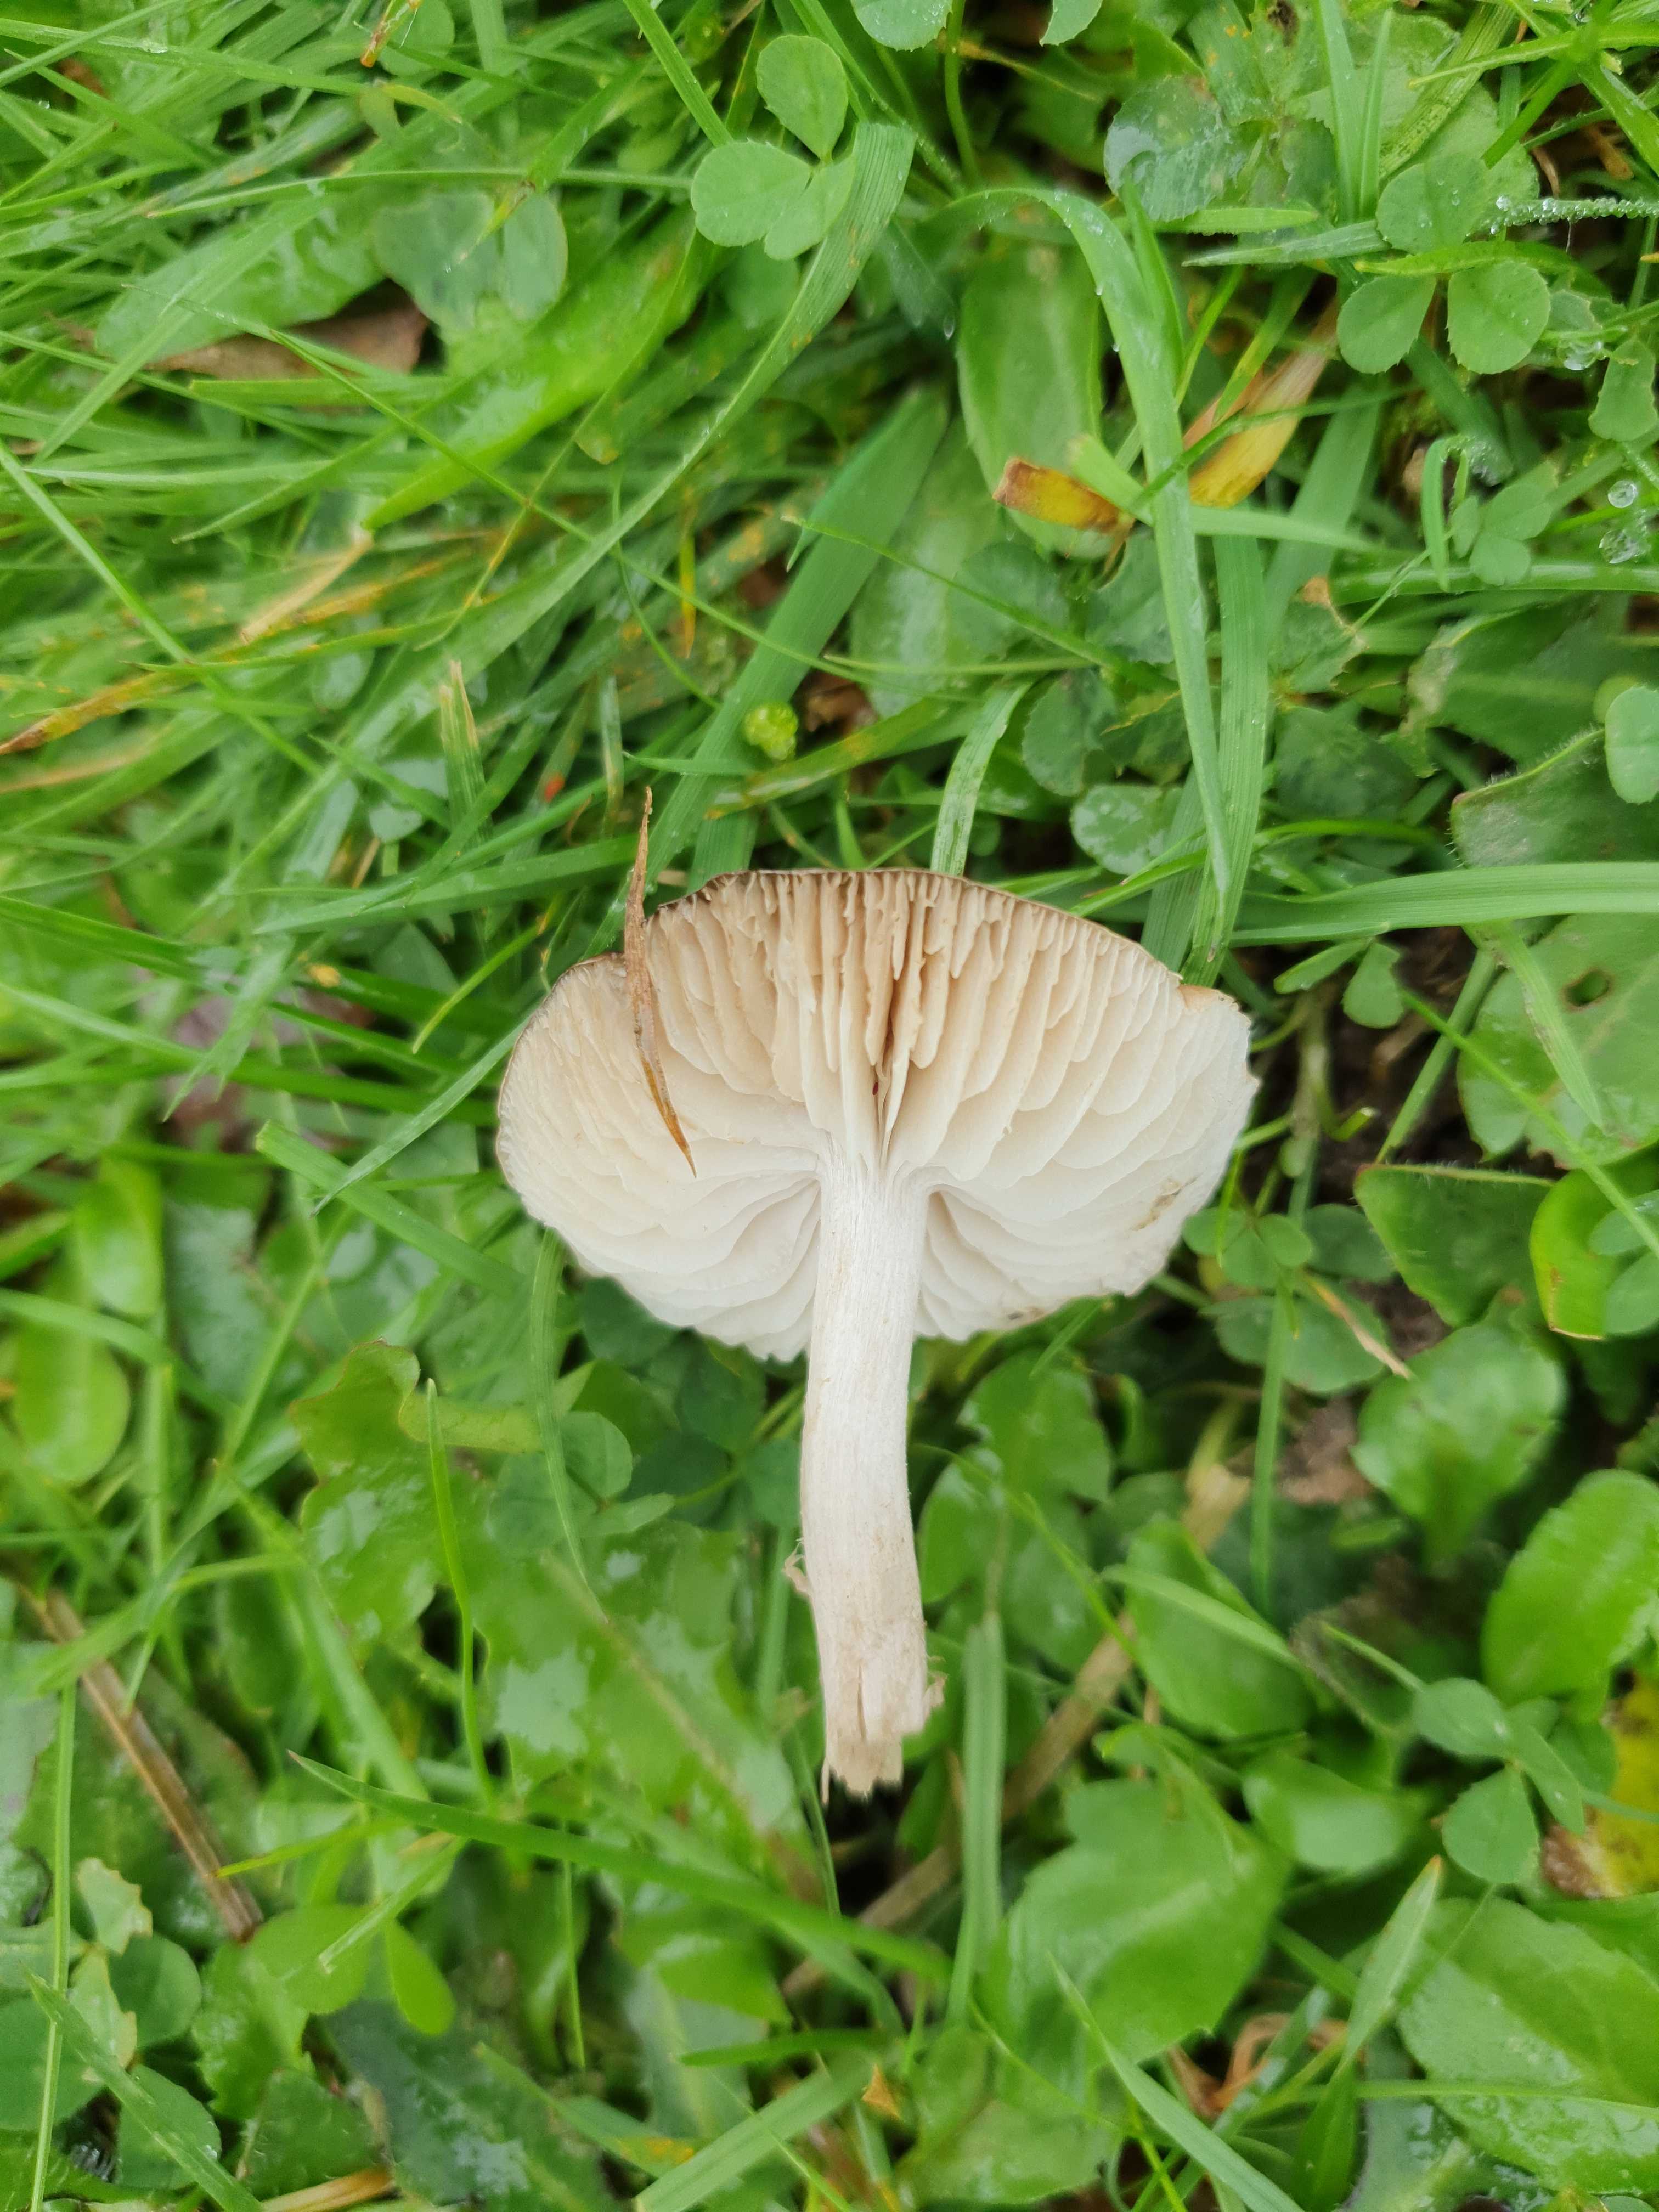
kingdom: Fungi
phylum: Basidiomycota
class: Agaricomycetes
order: Agaricales
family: Tricholomataceae
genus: Dermoloma
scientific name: Dermoloma cuneifolium
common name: eng-nonnehat
